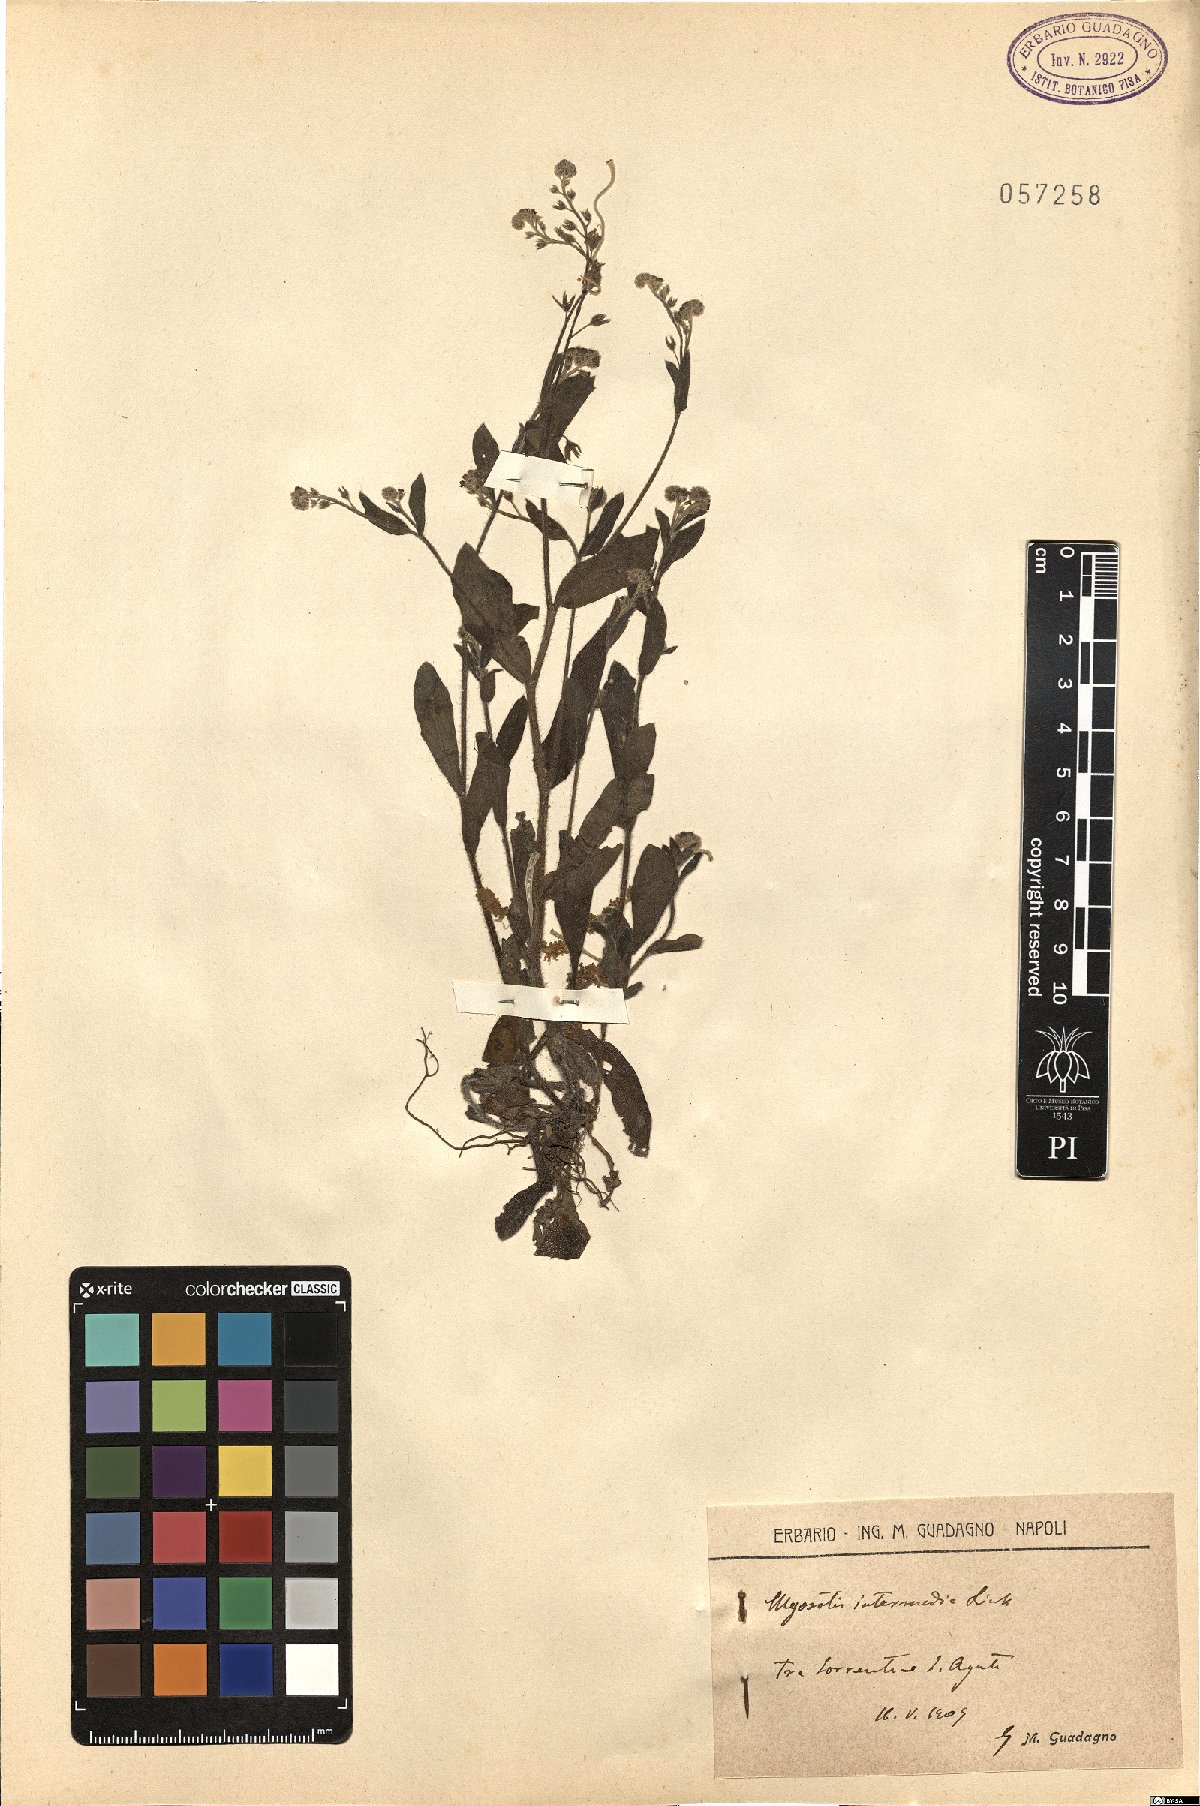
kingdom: Plantae
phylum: Tracheophyta
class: Magnoliopsida
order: Boraginales
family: Boraginaceae
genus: Myosotis
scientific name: Myosotis arvensis
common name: Field forget-me-not
